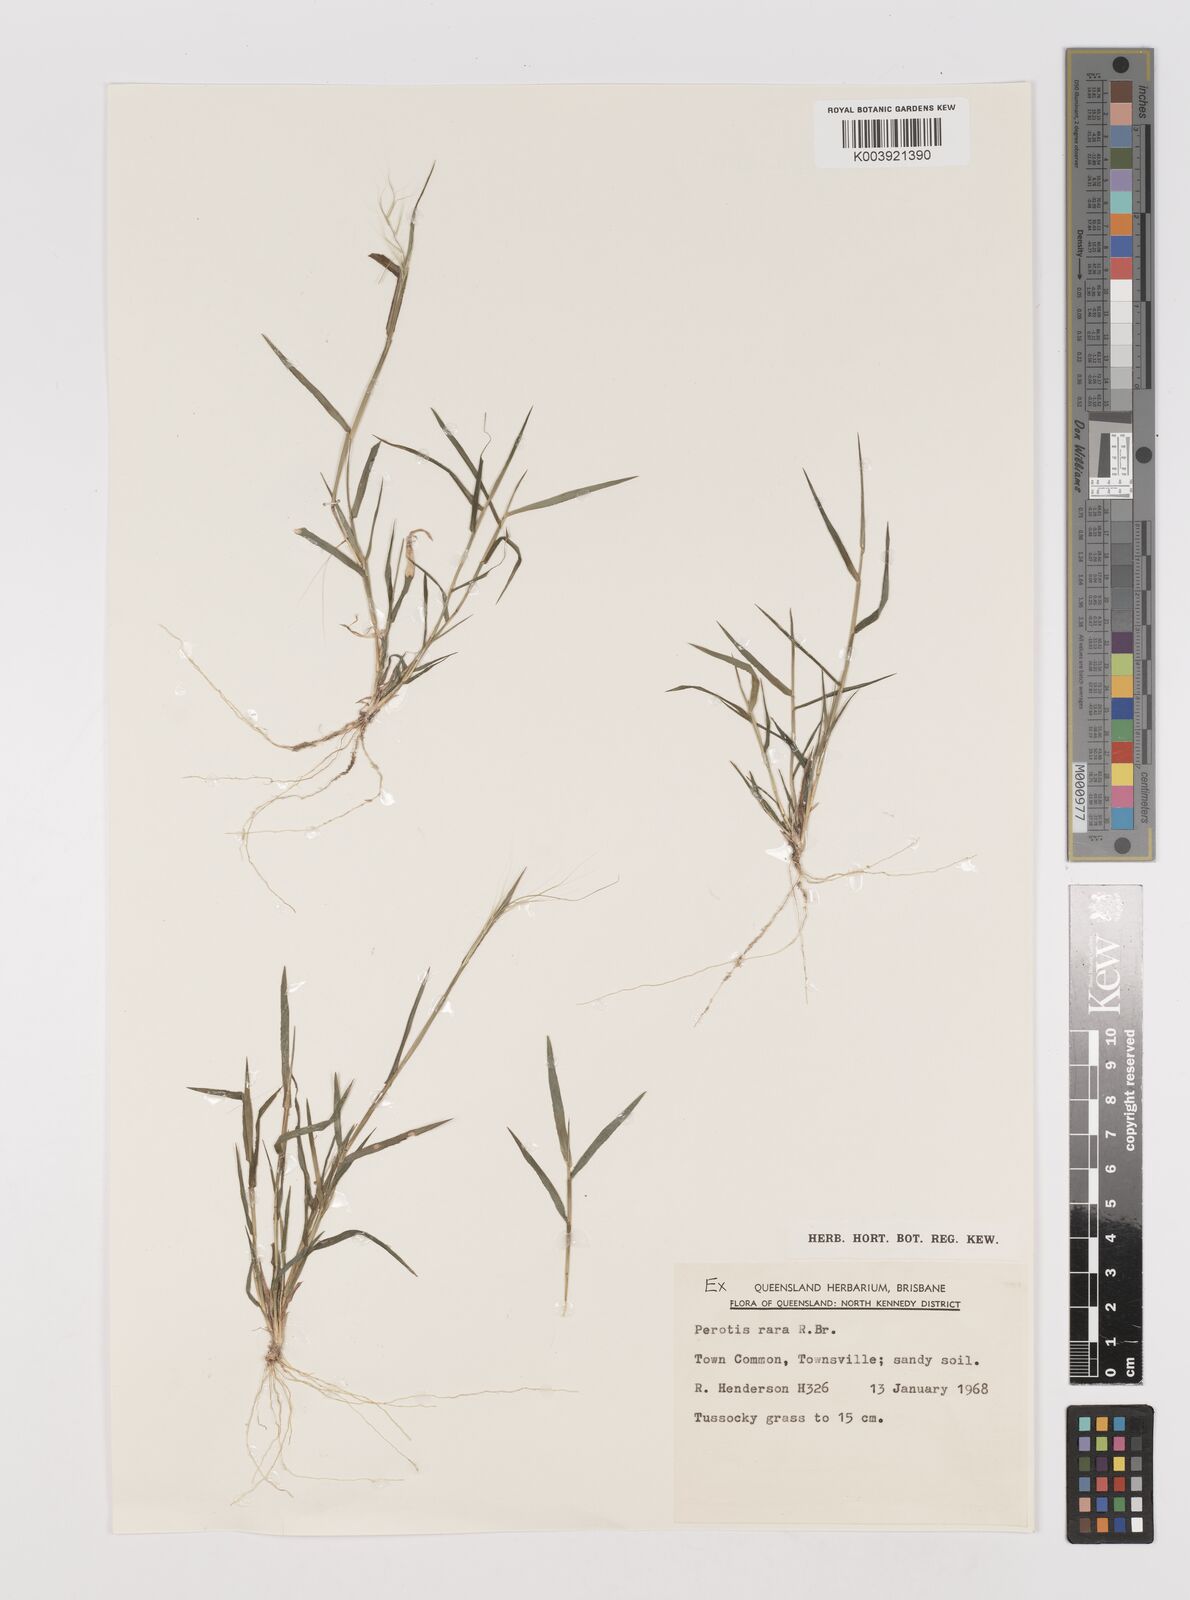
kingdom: Plantae
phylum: Tracheophyta
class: Liliopsida
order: Poales
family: Poaceae
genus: Perotis
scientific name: Perotis rara
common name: Comet grass
